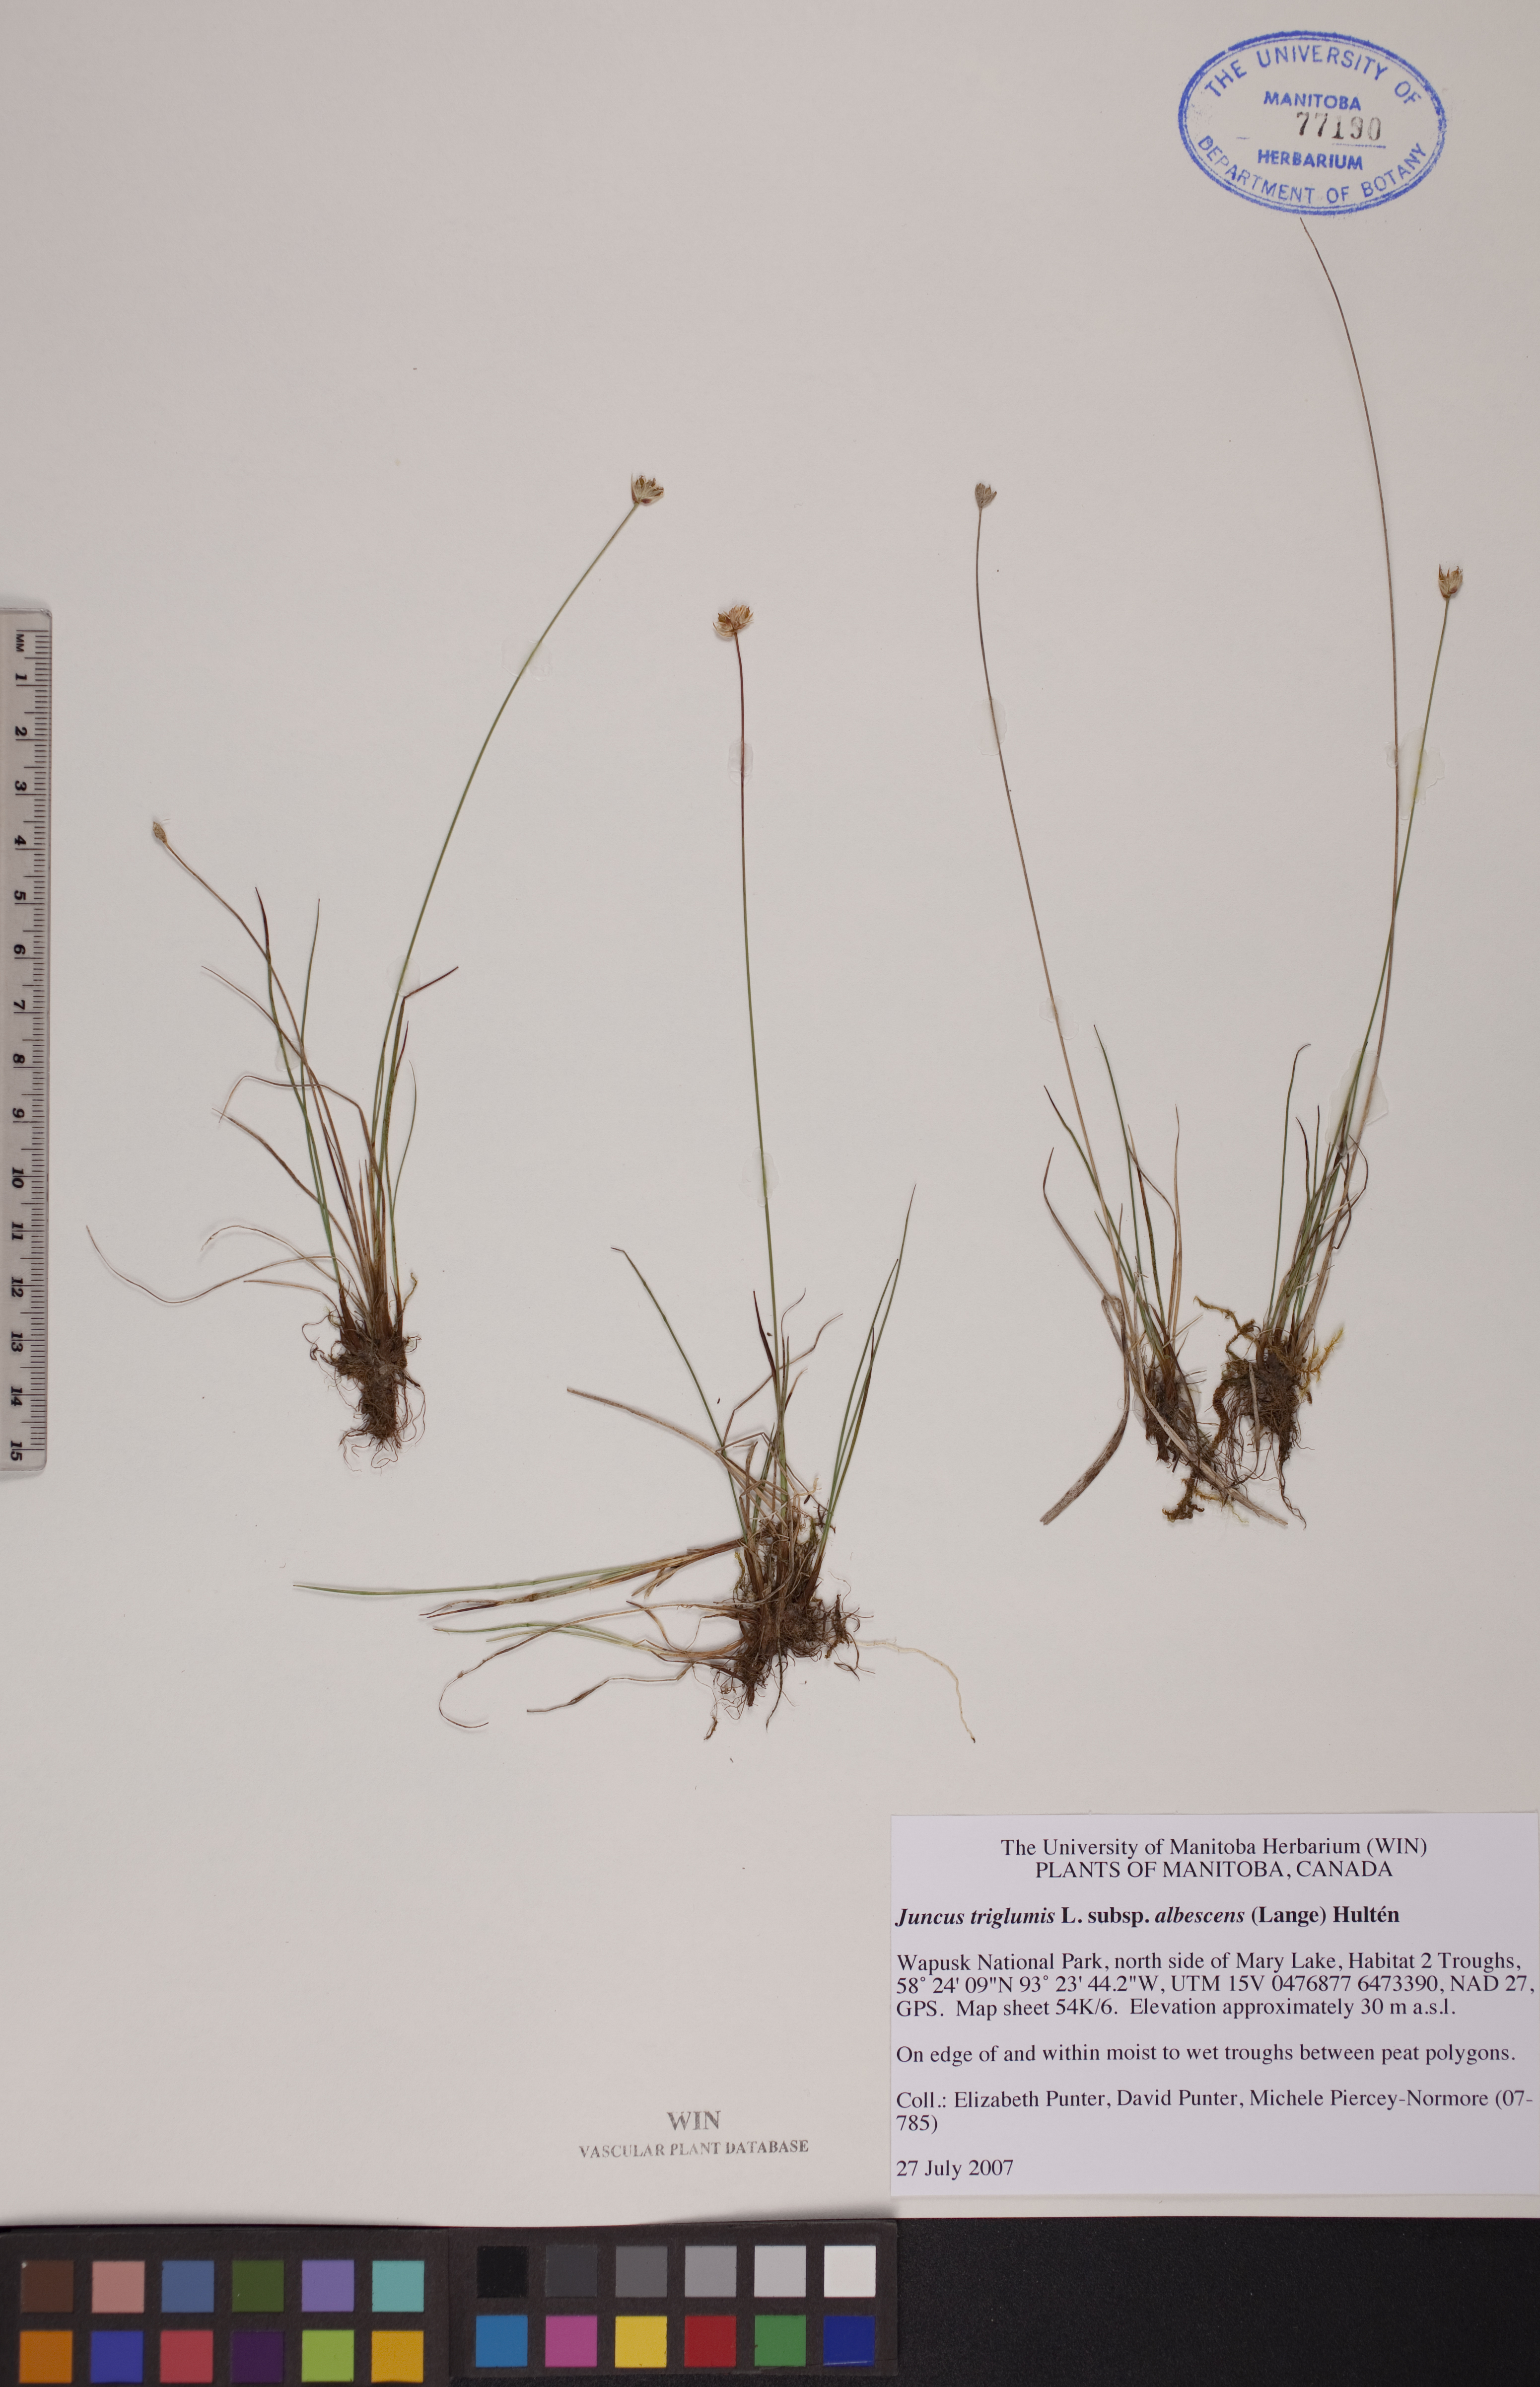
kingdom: Plantae
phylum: Tracheophyta
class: Liliopsida
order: Poales
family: Juncaceae
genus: Juncus
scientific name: Juncus albescens
